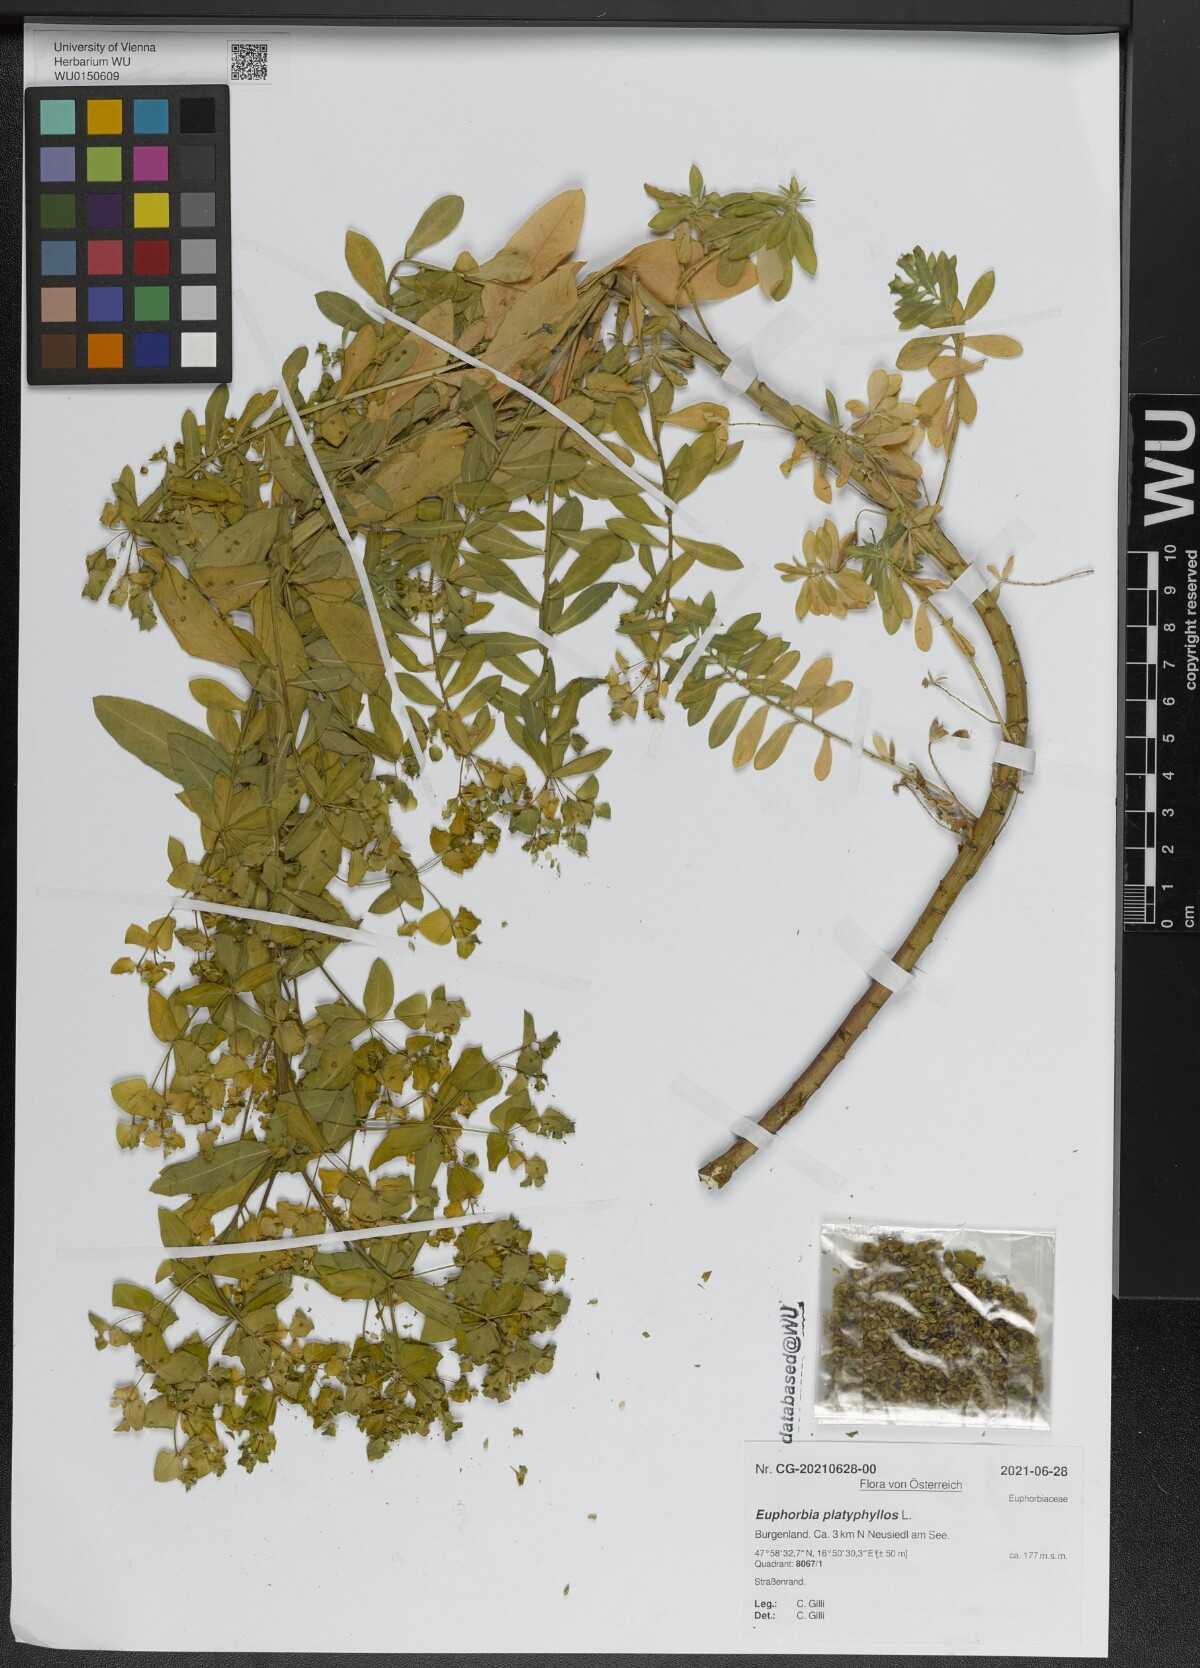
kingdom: Plantae
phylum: Tracheophyta
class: Magnoliopsida
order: Malpighiales
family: Euphorbiaceae
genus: Euphorbia
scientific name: Euphorbia platyphyllos
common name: Broad-leaved spurge
